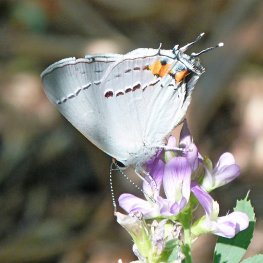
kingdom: Animalia
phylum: Arthropoda
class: Insecta
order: Lepidoptera
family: Lycaenidae
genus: Strymon
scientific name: Strymon melinus
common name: Gray Hairstreak
